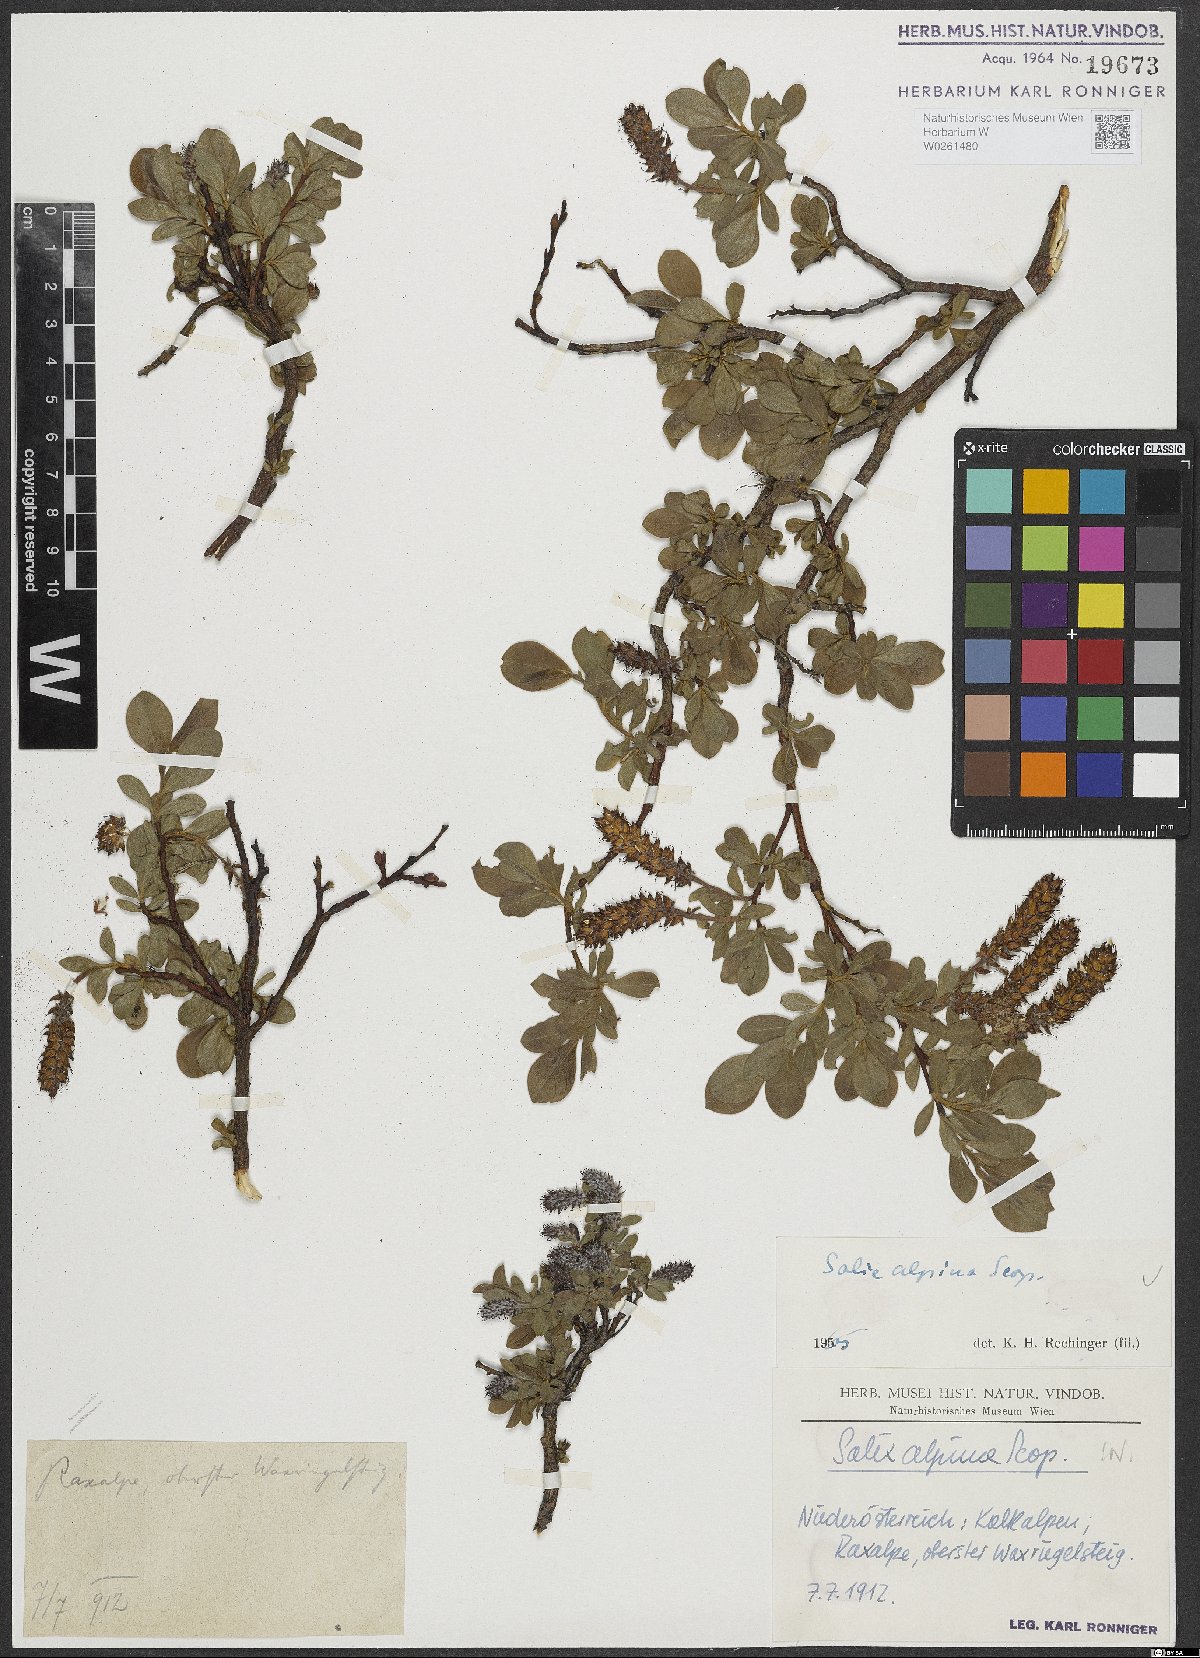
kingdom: Plantae
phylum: Tracheophyta
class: Magnoliopsida
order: Malpighiales
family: Salicaceae
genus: Salix
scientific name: Salix alpina
